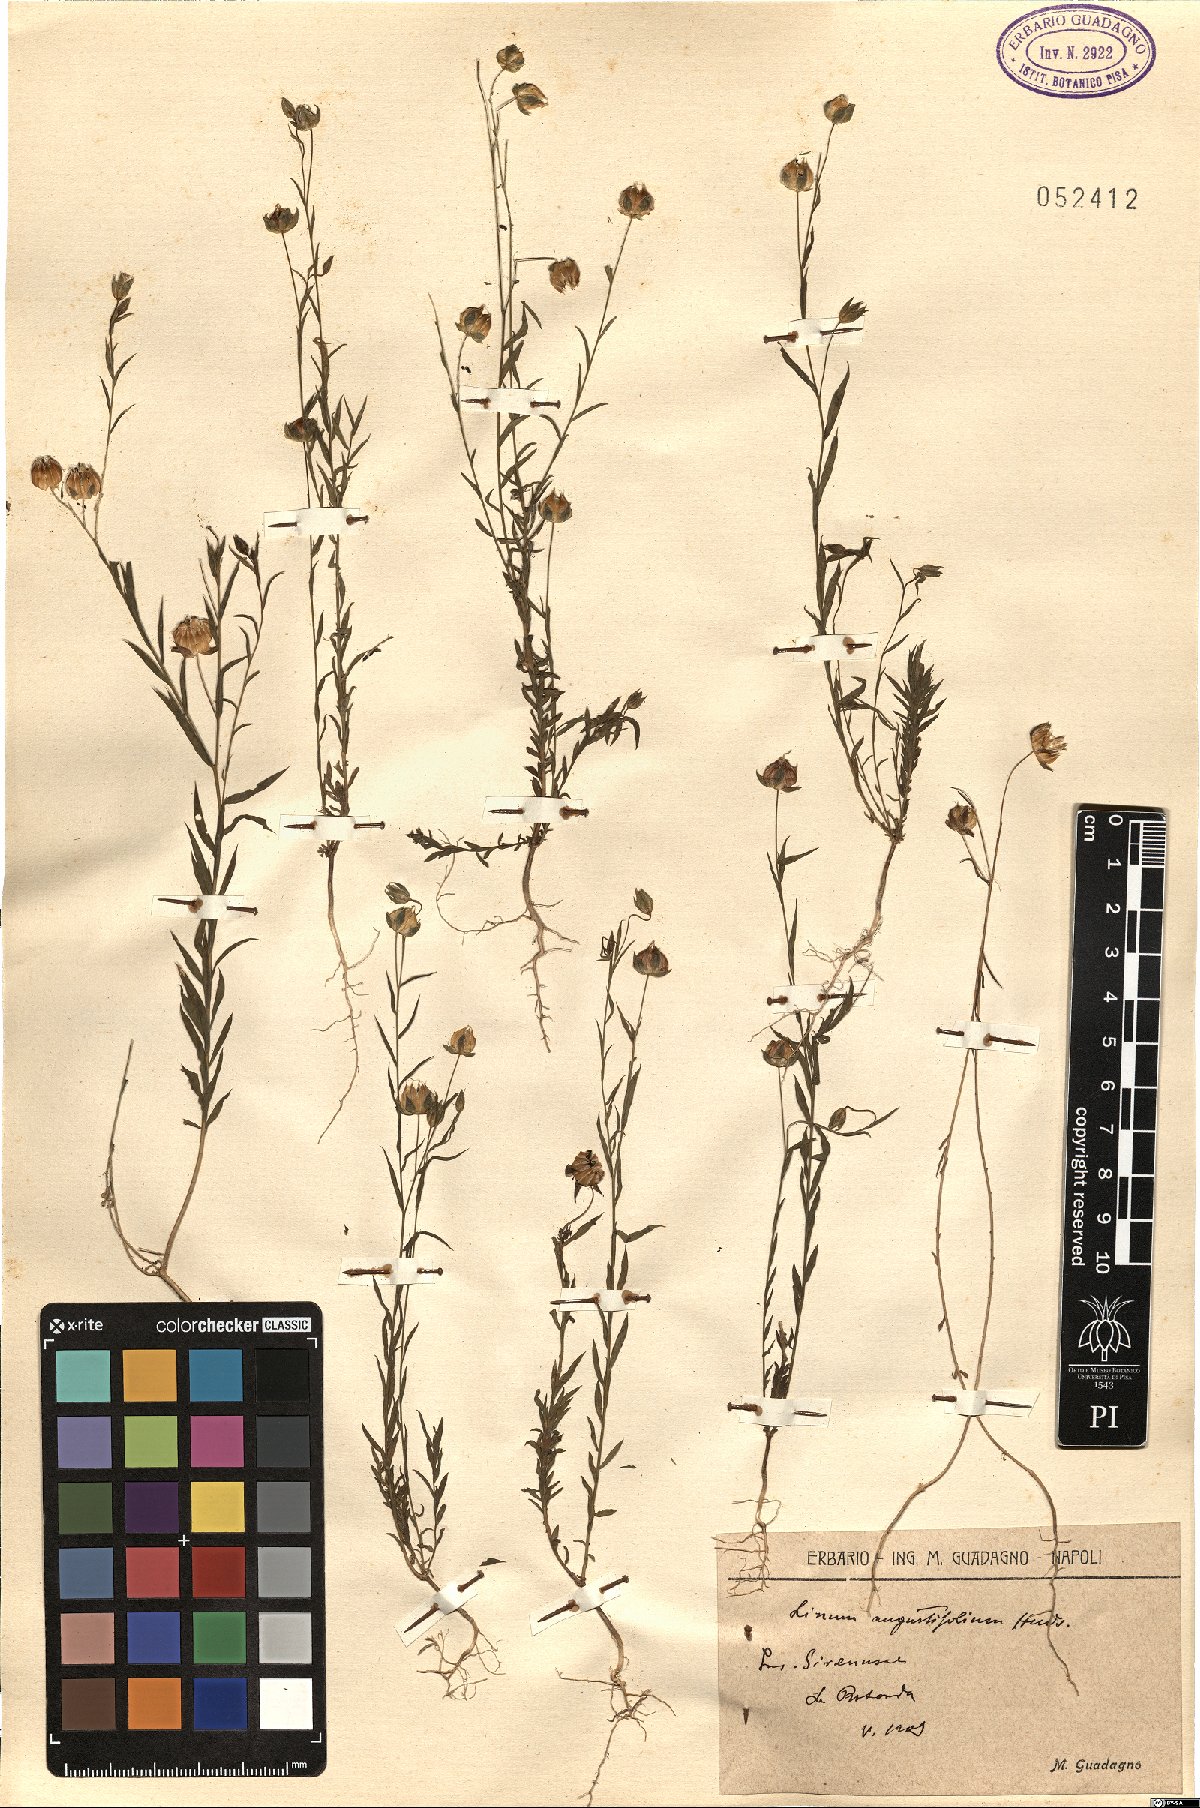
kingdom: Plantae
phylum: Tracheophyta
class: Magnoliopsida
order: Malpighiales
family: Linaceae
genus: Linum
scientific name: Linum bienne
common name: Pale flax
